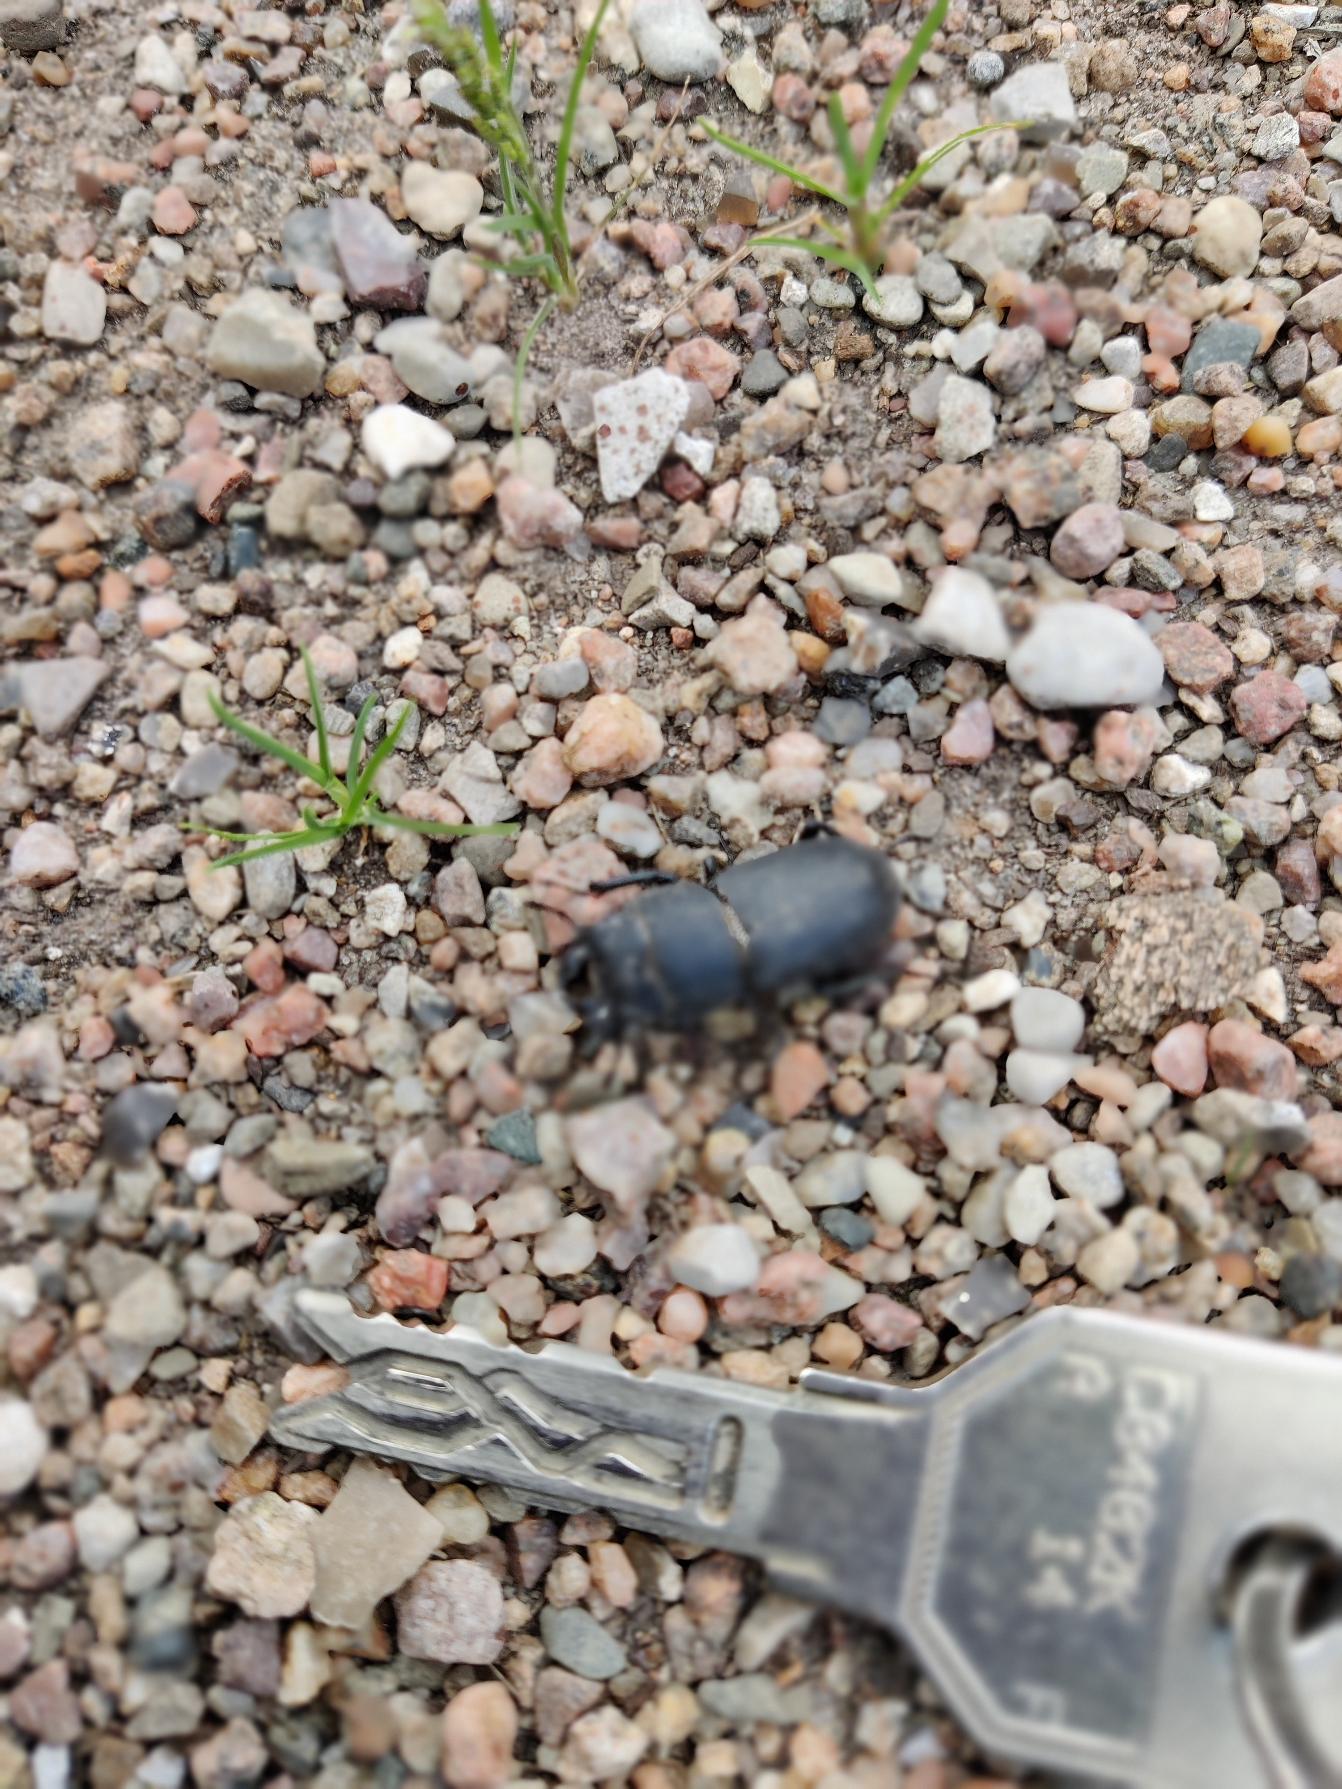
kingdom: Animalia
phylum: Arthropoda
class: Insecta
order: Coleoptera
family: Lucanidae
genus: Dorcus
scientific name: Dorcus parallelipipedus
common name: Bøghjort
